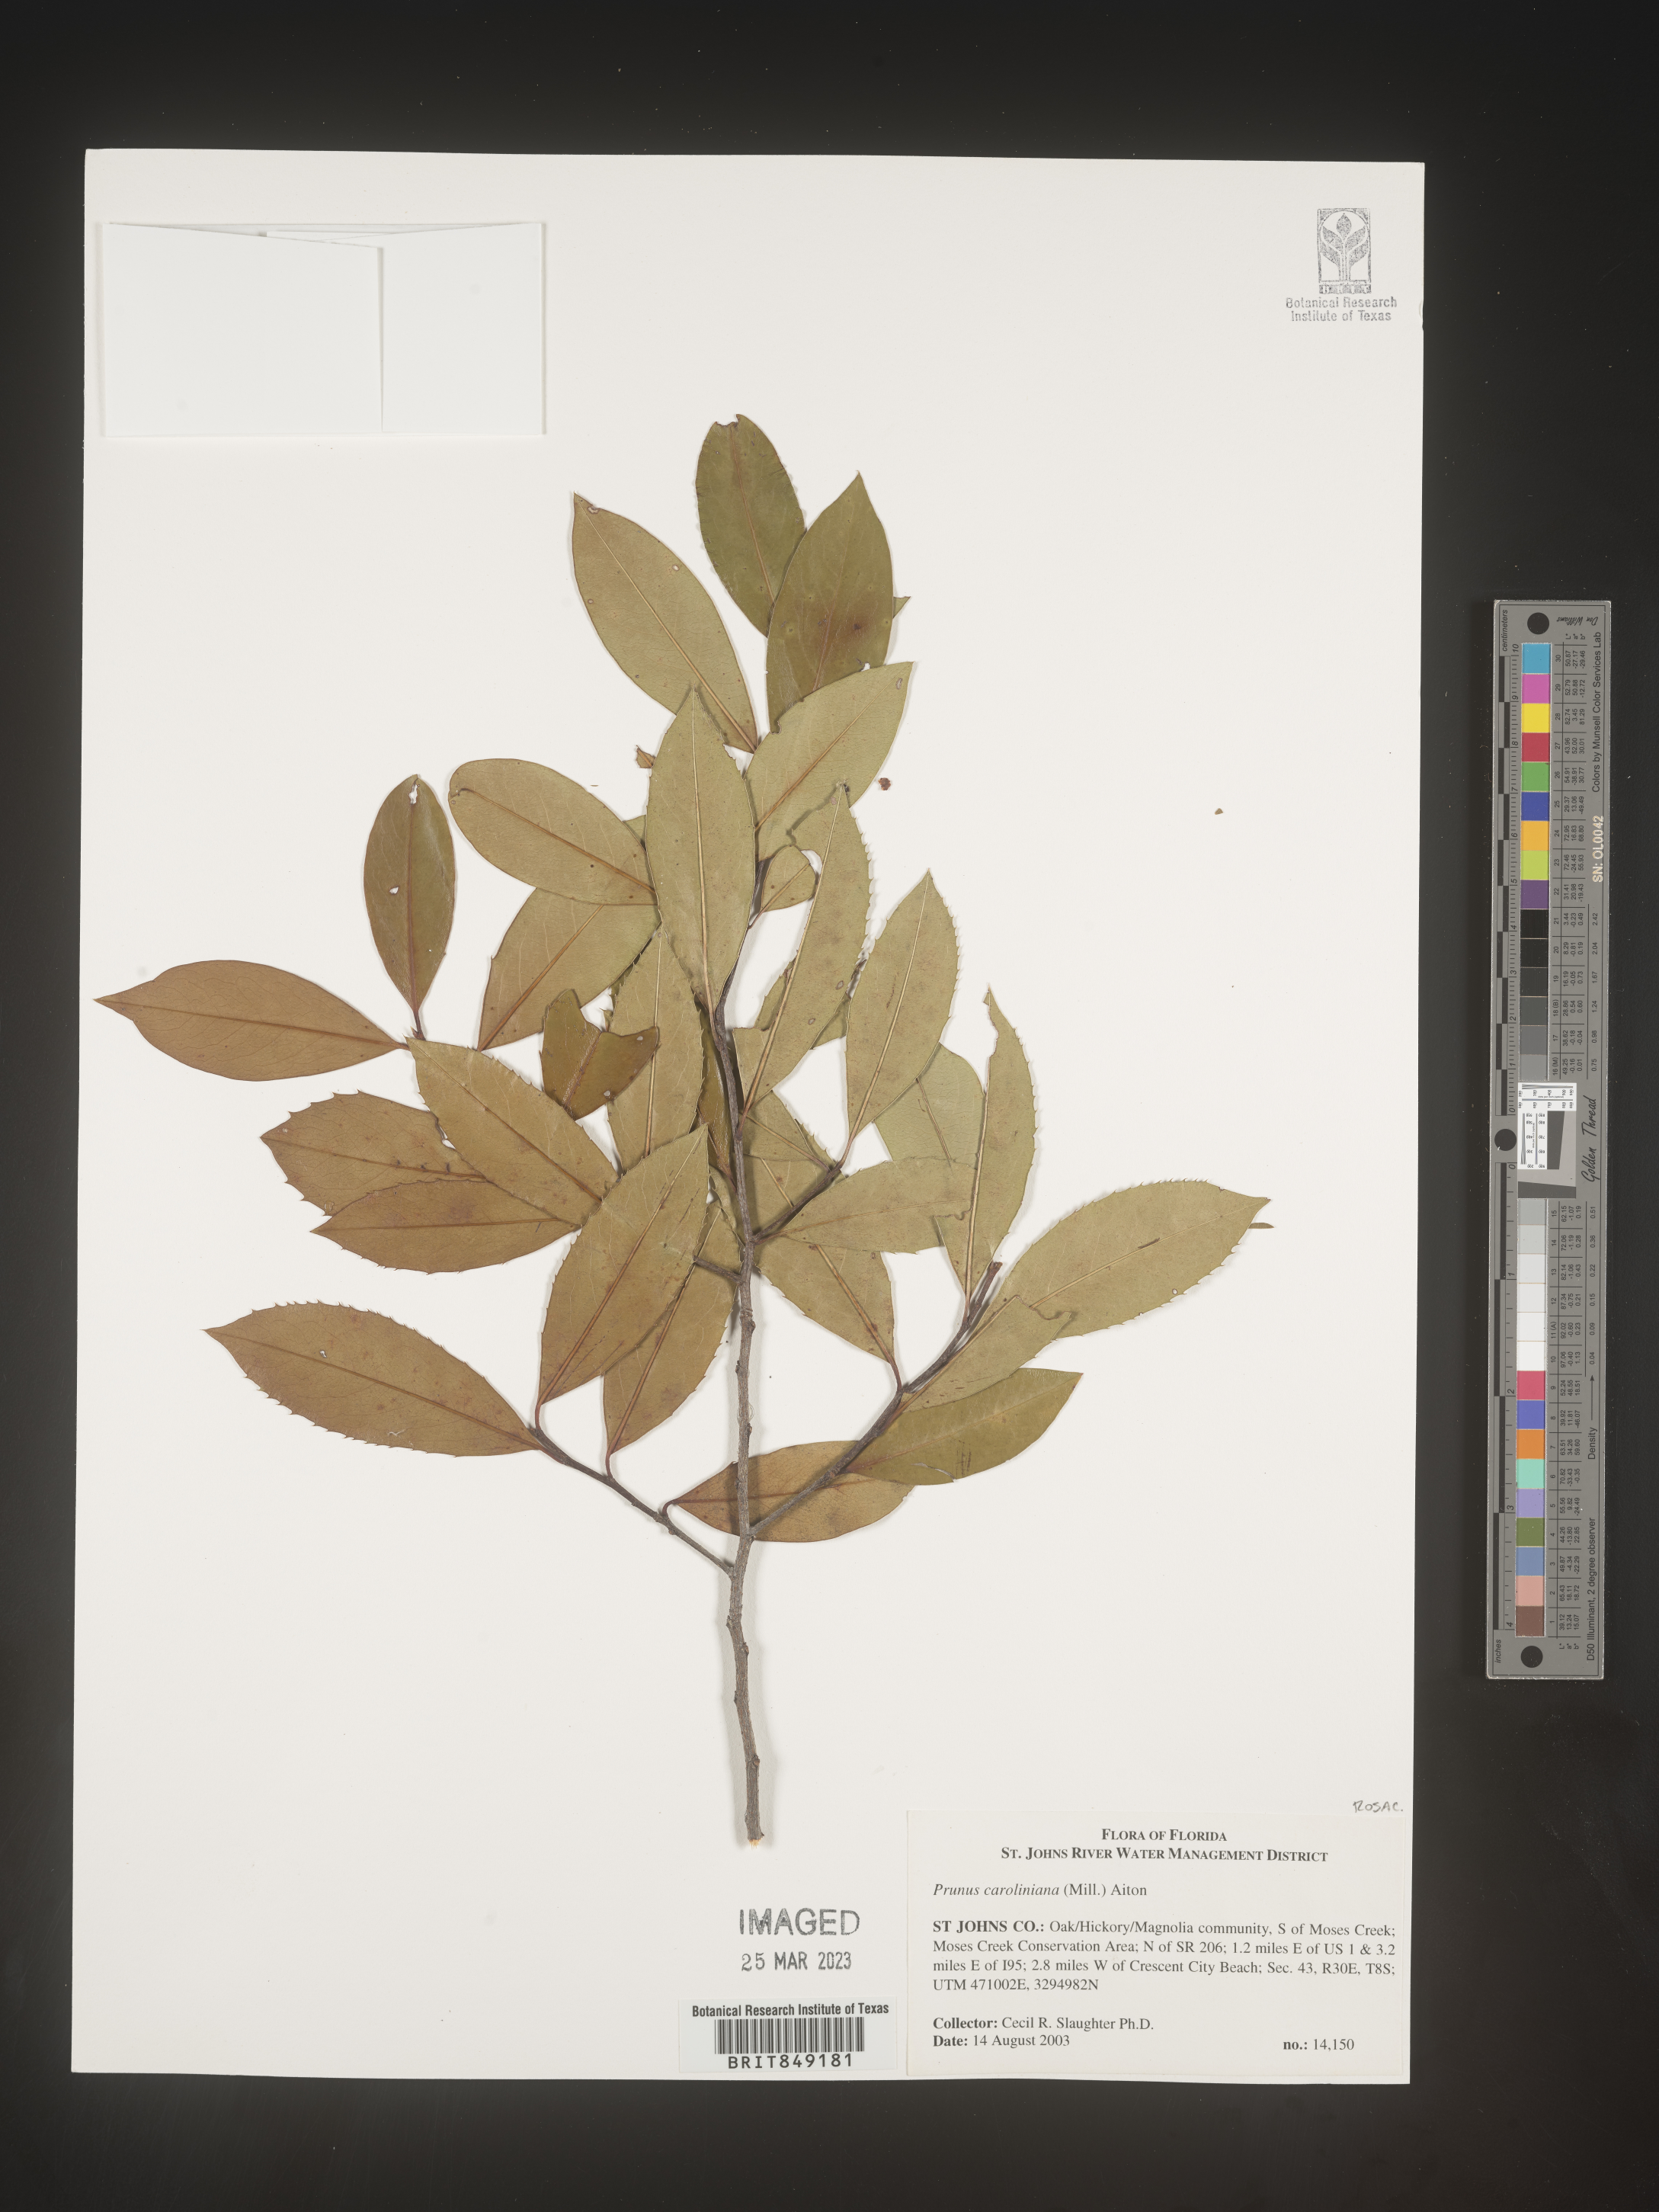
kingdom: Plantae
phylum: Tracheophyta
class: Magnoliopsida
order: Rosales
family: Rosaceae
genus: Prunus
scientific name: Prunus
